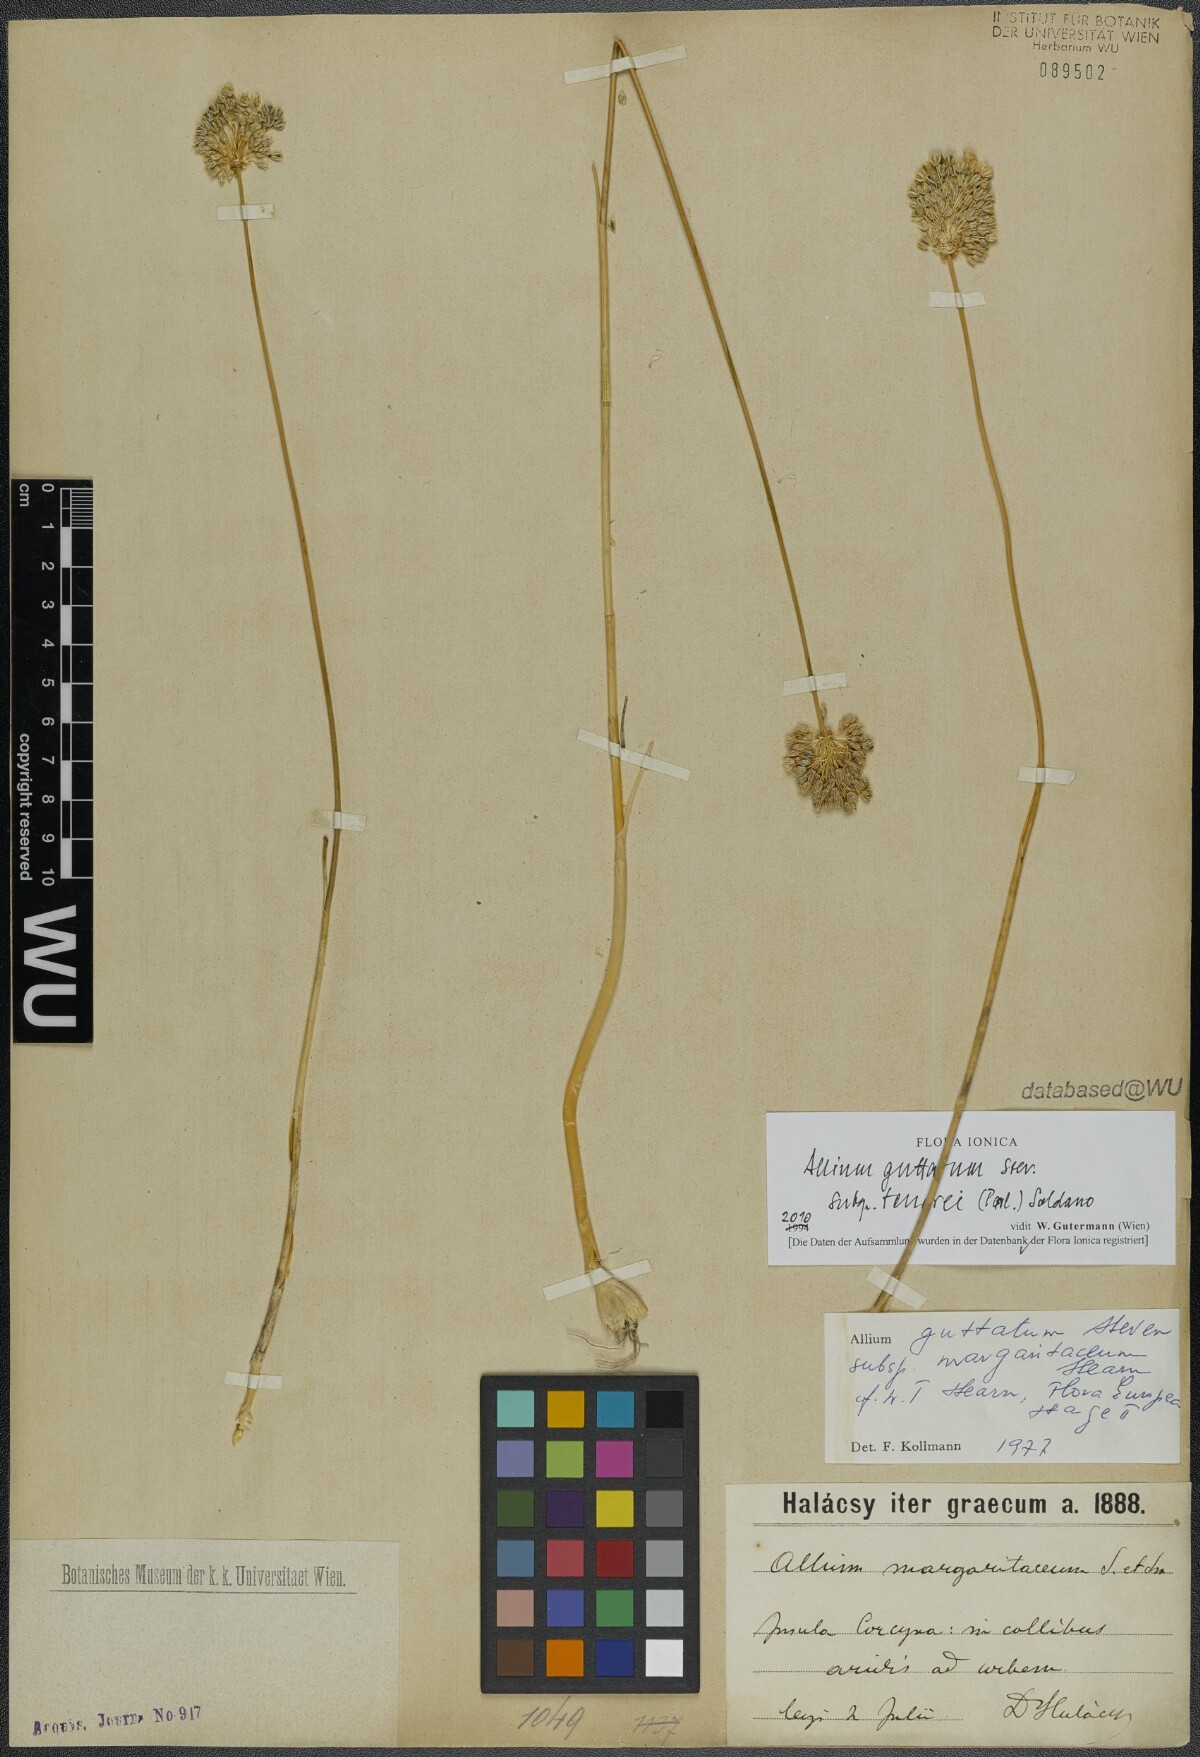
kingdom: Plantae
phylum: Tracheophyta
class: Liliopsida
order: Asparagales
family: Amaryllidaceae
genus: Allium
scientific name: Allium sardoum
